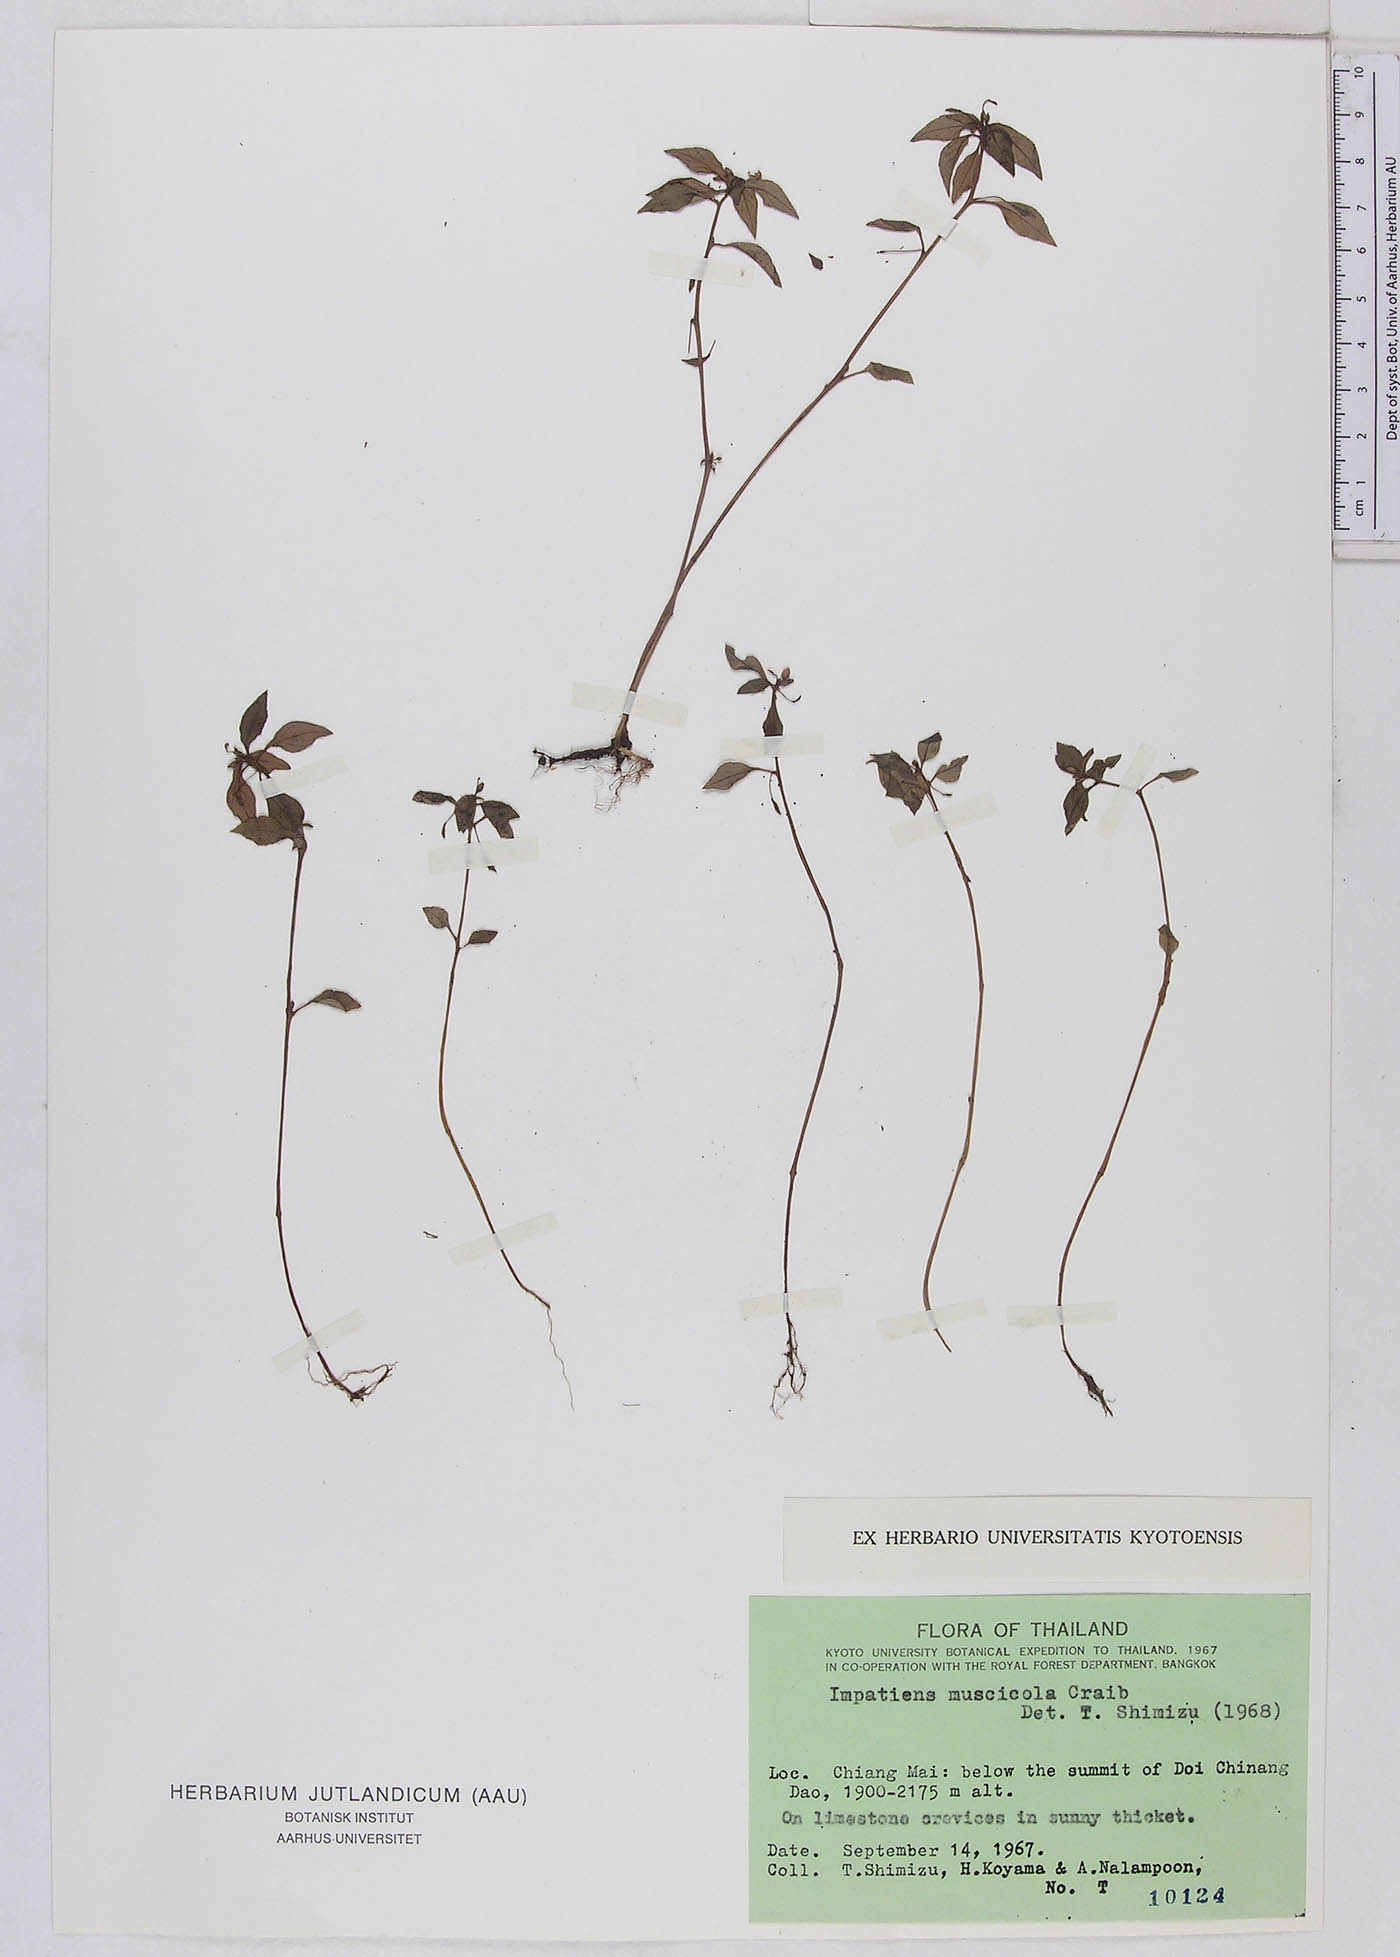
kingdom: Plantae
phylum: Tracheophyta
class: Magnoliopsida
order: Ericales
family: Balsaminaceae
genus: Impatiens
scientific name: Impatiens muscicola
